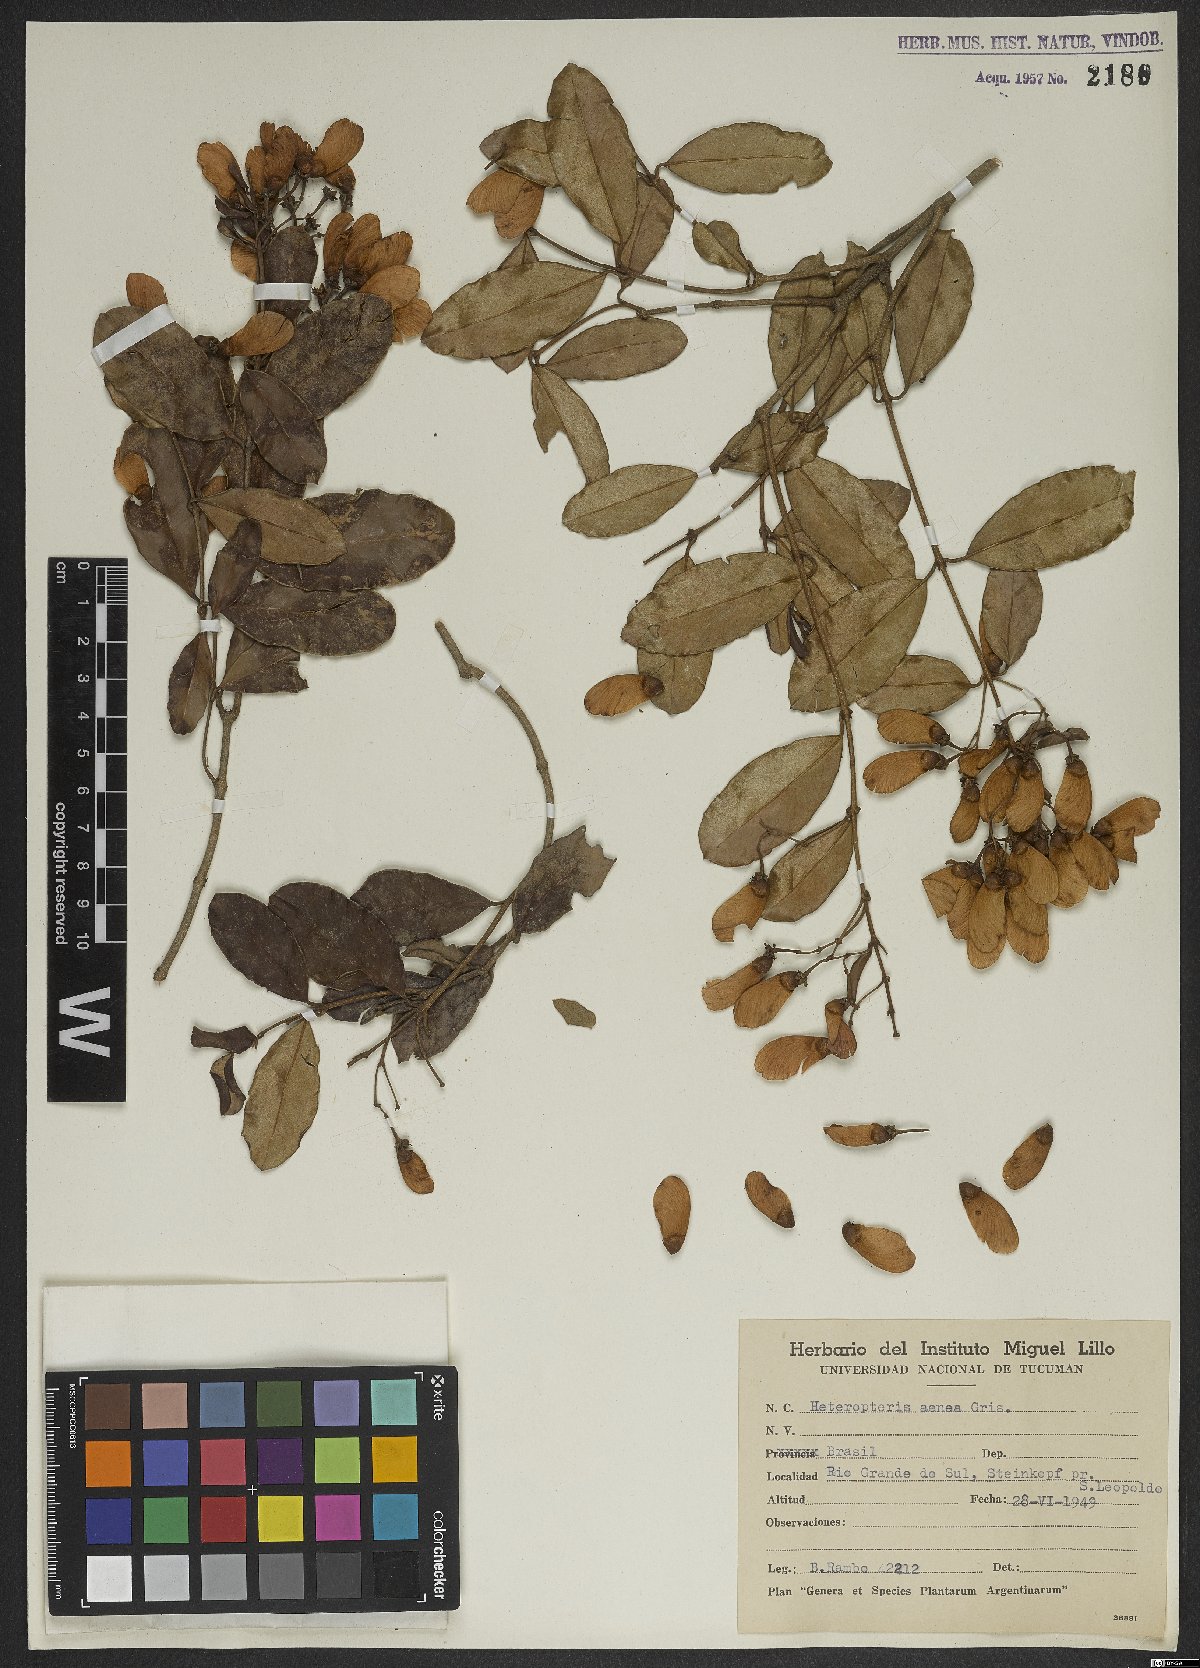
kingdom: Plantae
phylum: Tracheophyta
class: Magnoliopsida
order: Malpighiales
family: Malpighiaceae
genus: Heteropterys
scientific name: Heteropterys aenea
